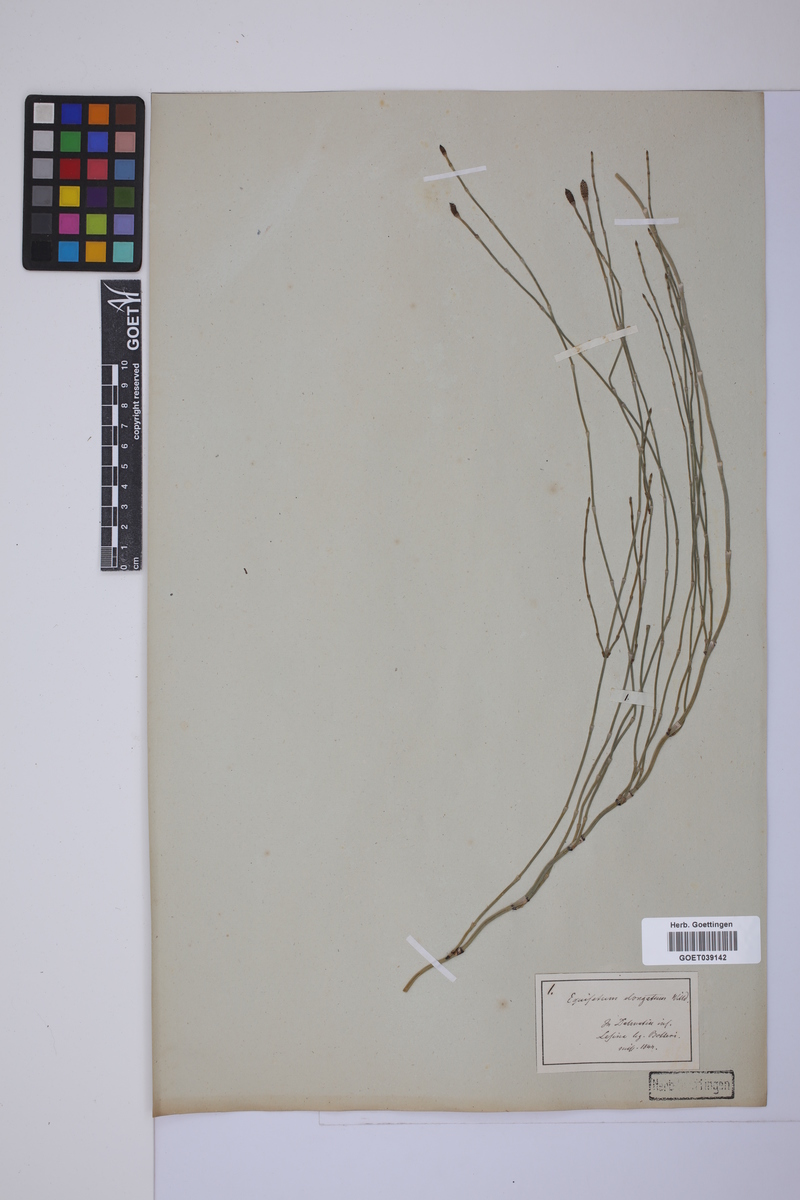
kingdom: Plantae
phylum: Tracheophyta
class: Polypodiopsida
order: Equisetales
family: Equisetaceae
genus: Equisetum
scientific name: Equisetum giganteum
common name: Giant horsetail
